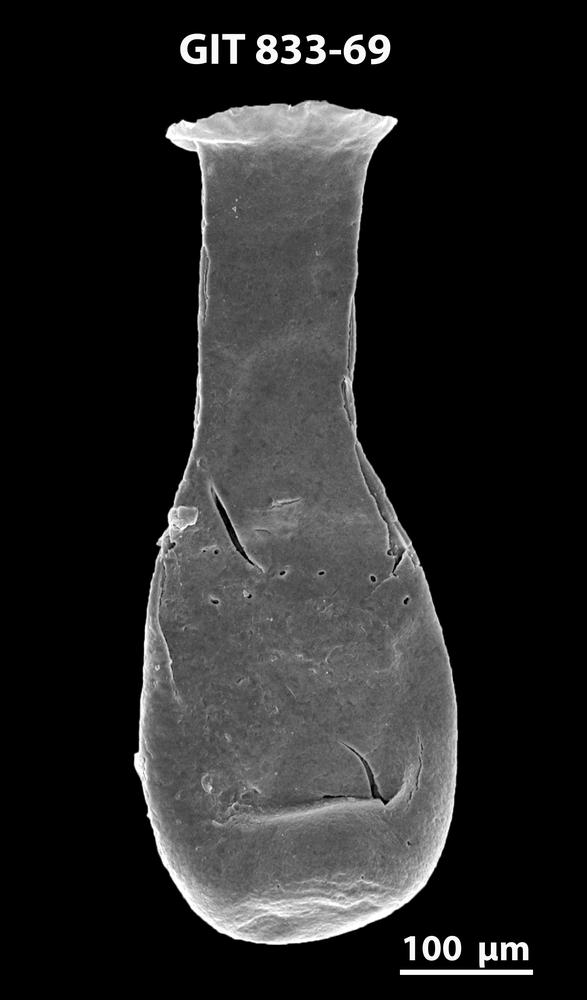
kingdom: Animalia
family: Lagenochitinidae
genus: Lagenochitina
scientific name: Lagenochitina megaesthonica
